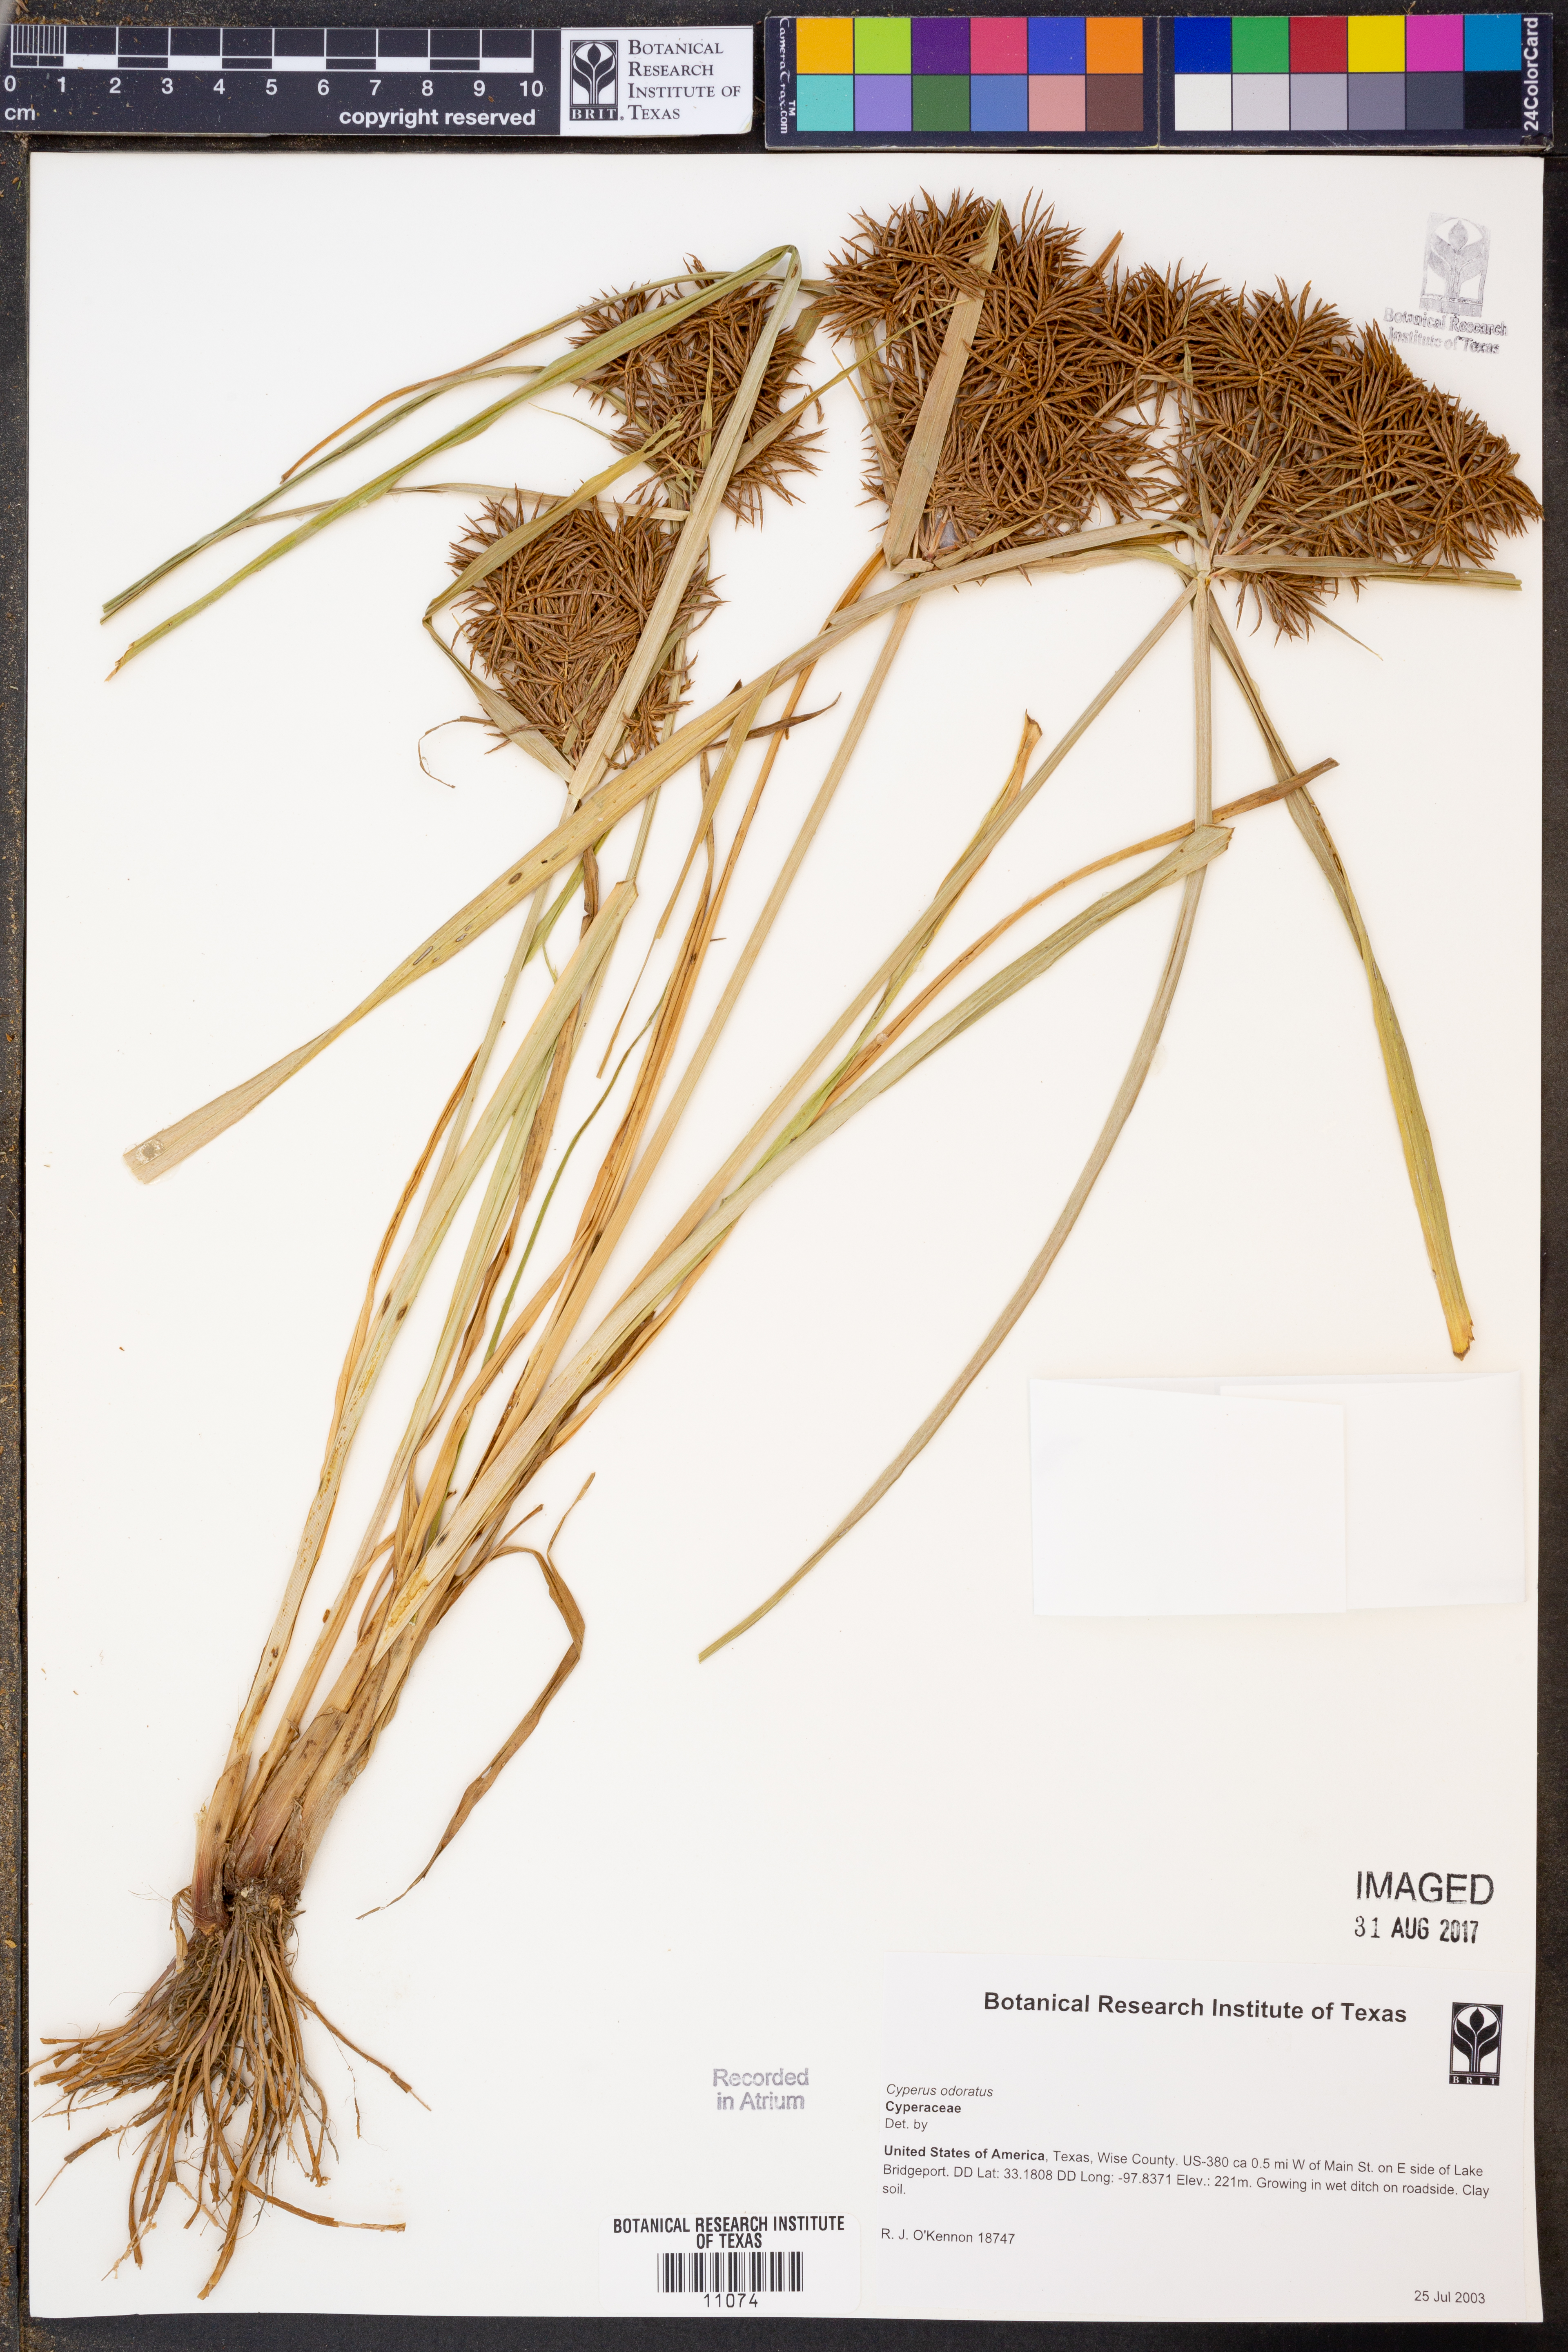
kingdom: Plantae
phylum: Tracheophyta
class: Liliopsida
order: Poales
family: Cyperaceae
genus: Cyperus
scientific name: Cyperus odoratus
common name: Fragrant flatsedge
